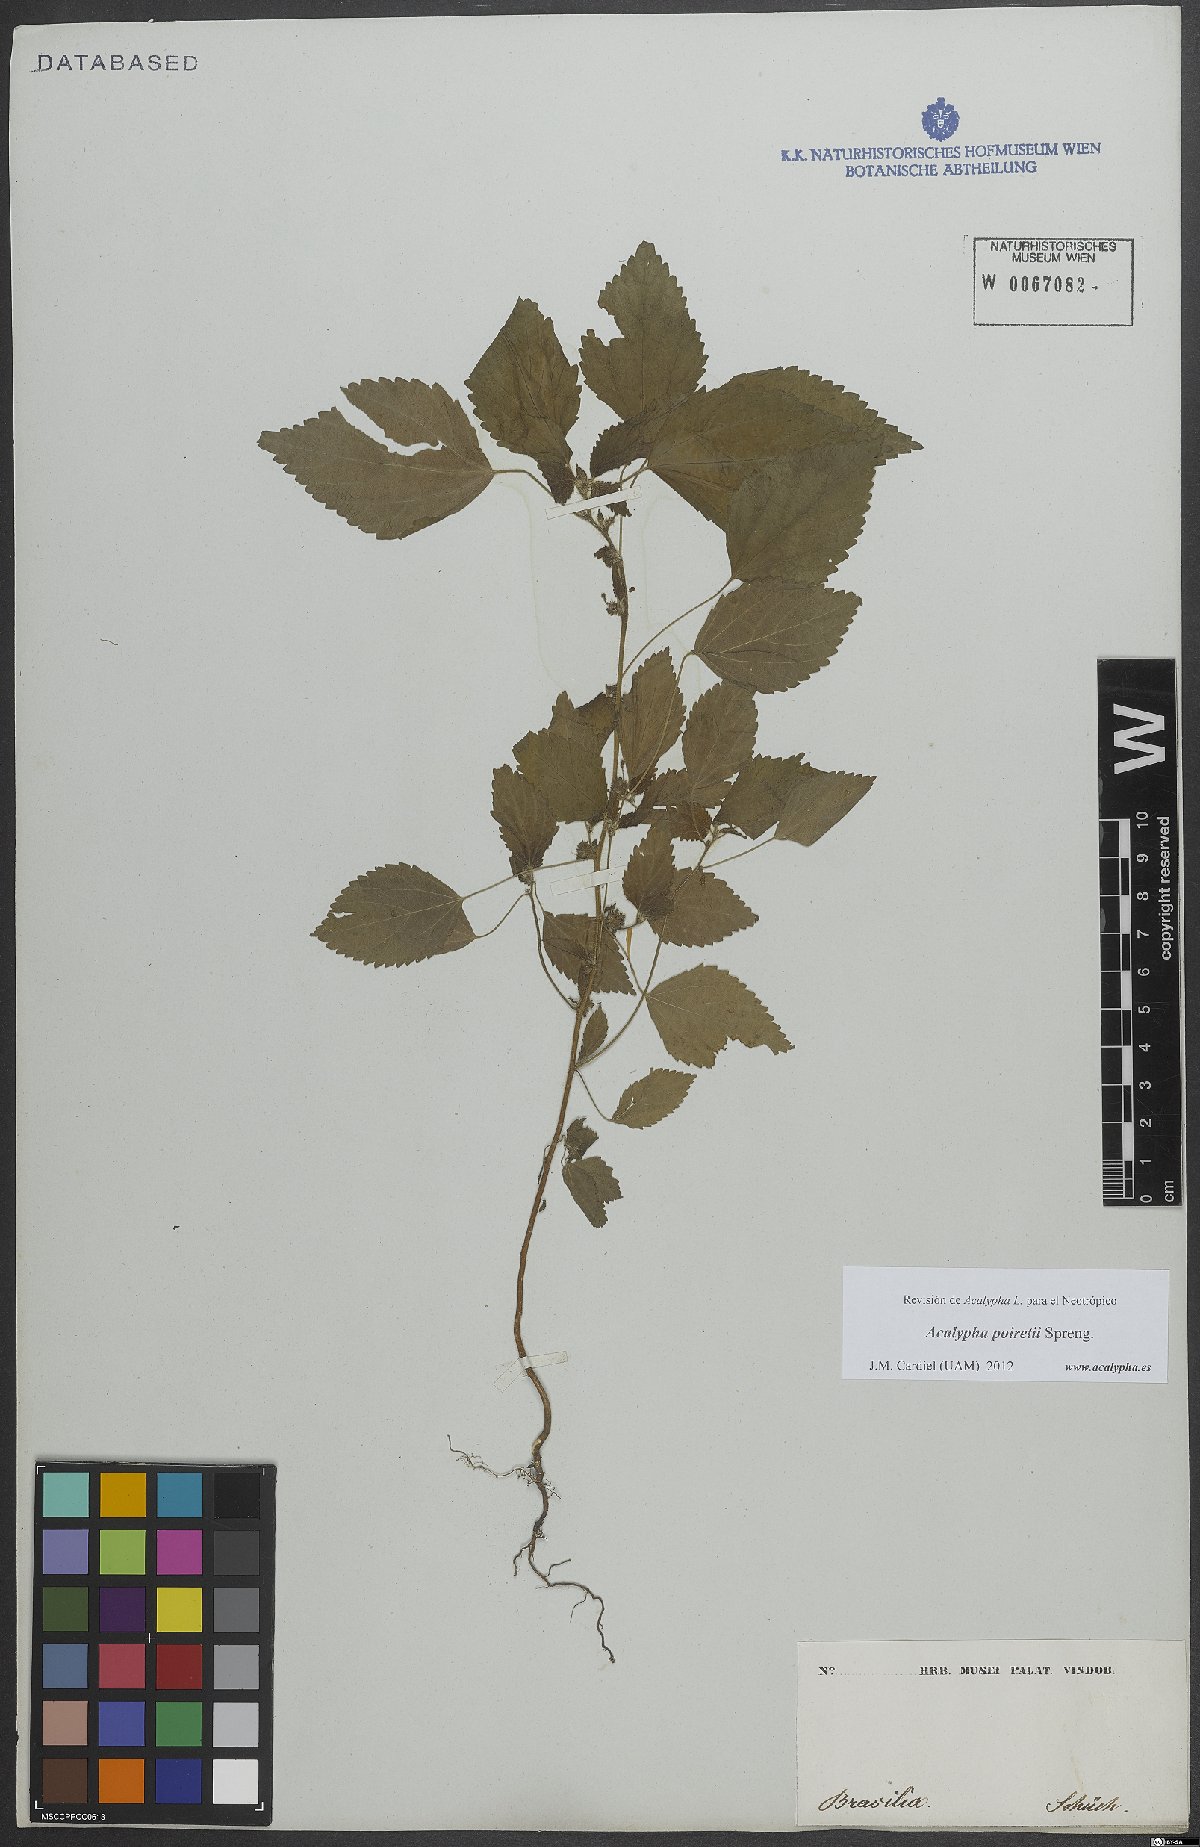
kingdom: Plantae
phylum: Tracheophyta
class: Magnoliopsida
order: Malpighiales
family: Euphorbiaceae
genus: Acalypha
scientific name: Acalypha poiretii
